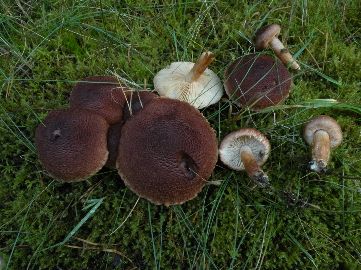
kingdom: Fungi
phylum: Basidiomycota
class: Agaricomycetes
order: Agaricales
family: Tricholomataceae
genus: Tricholoma
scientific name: Tricholoma vaccinum
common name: ko-ridderhat
